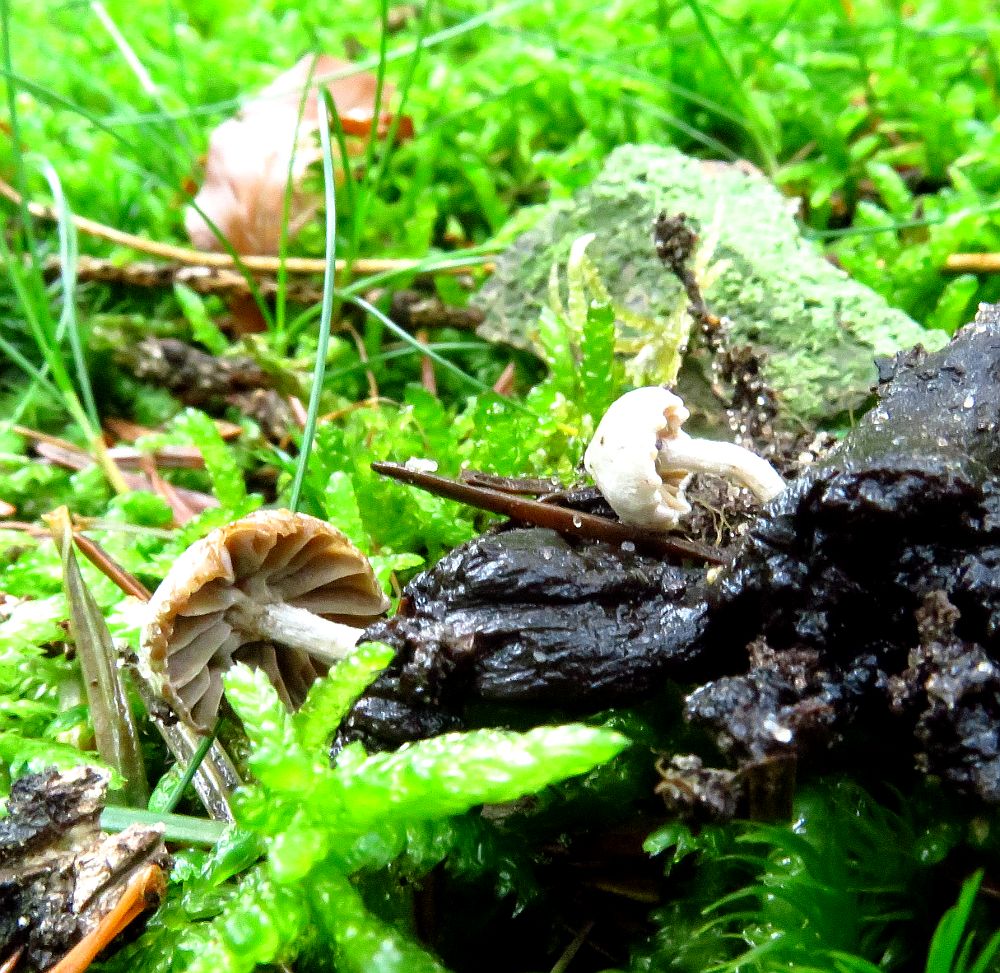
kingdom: Fungi
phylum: Basidiomycota
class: Agaricomycetes
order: Agaricales
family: Lyophyllaceae
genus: Asterophora
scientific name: Asterophora parasitica
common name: grå snyltehat
